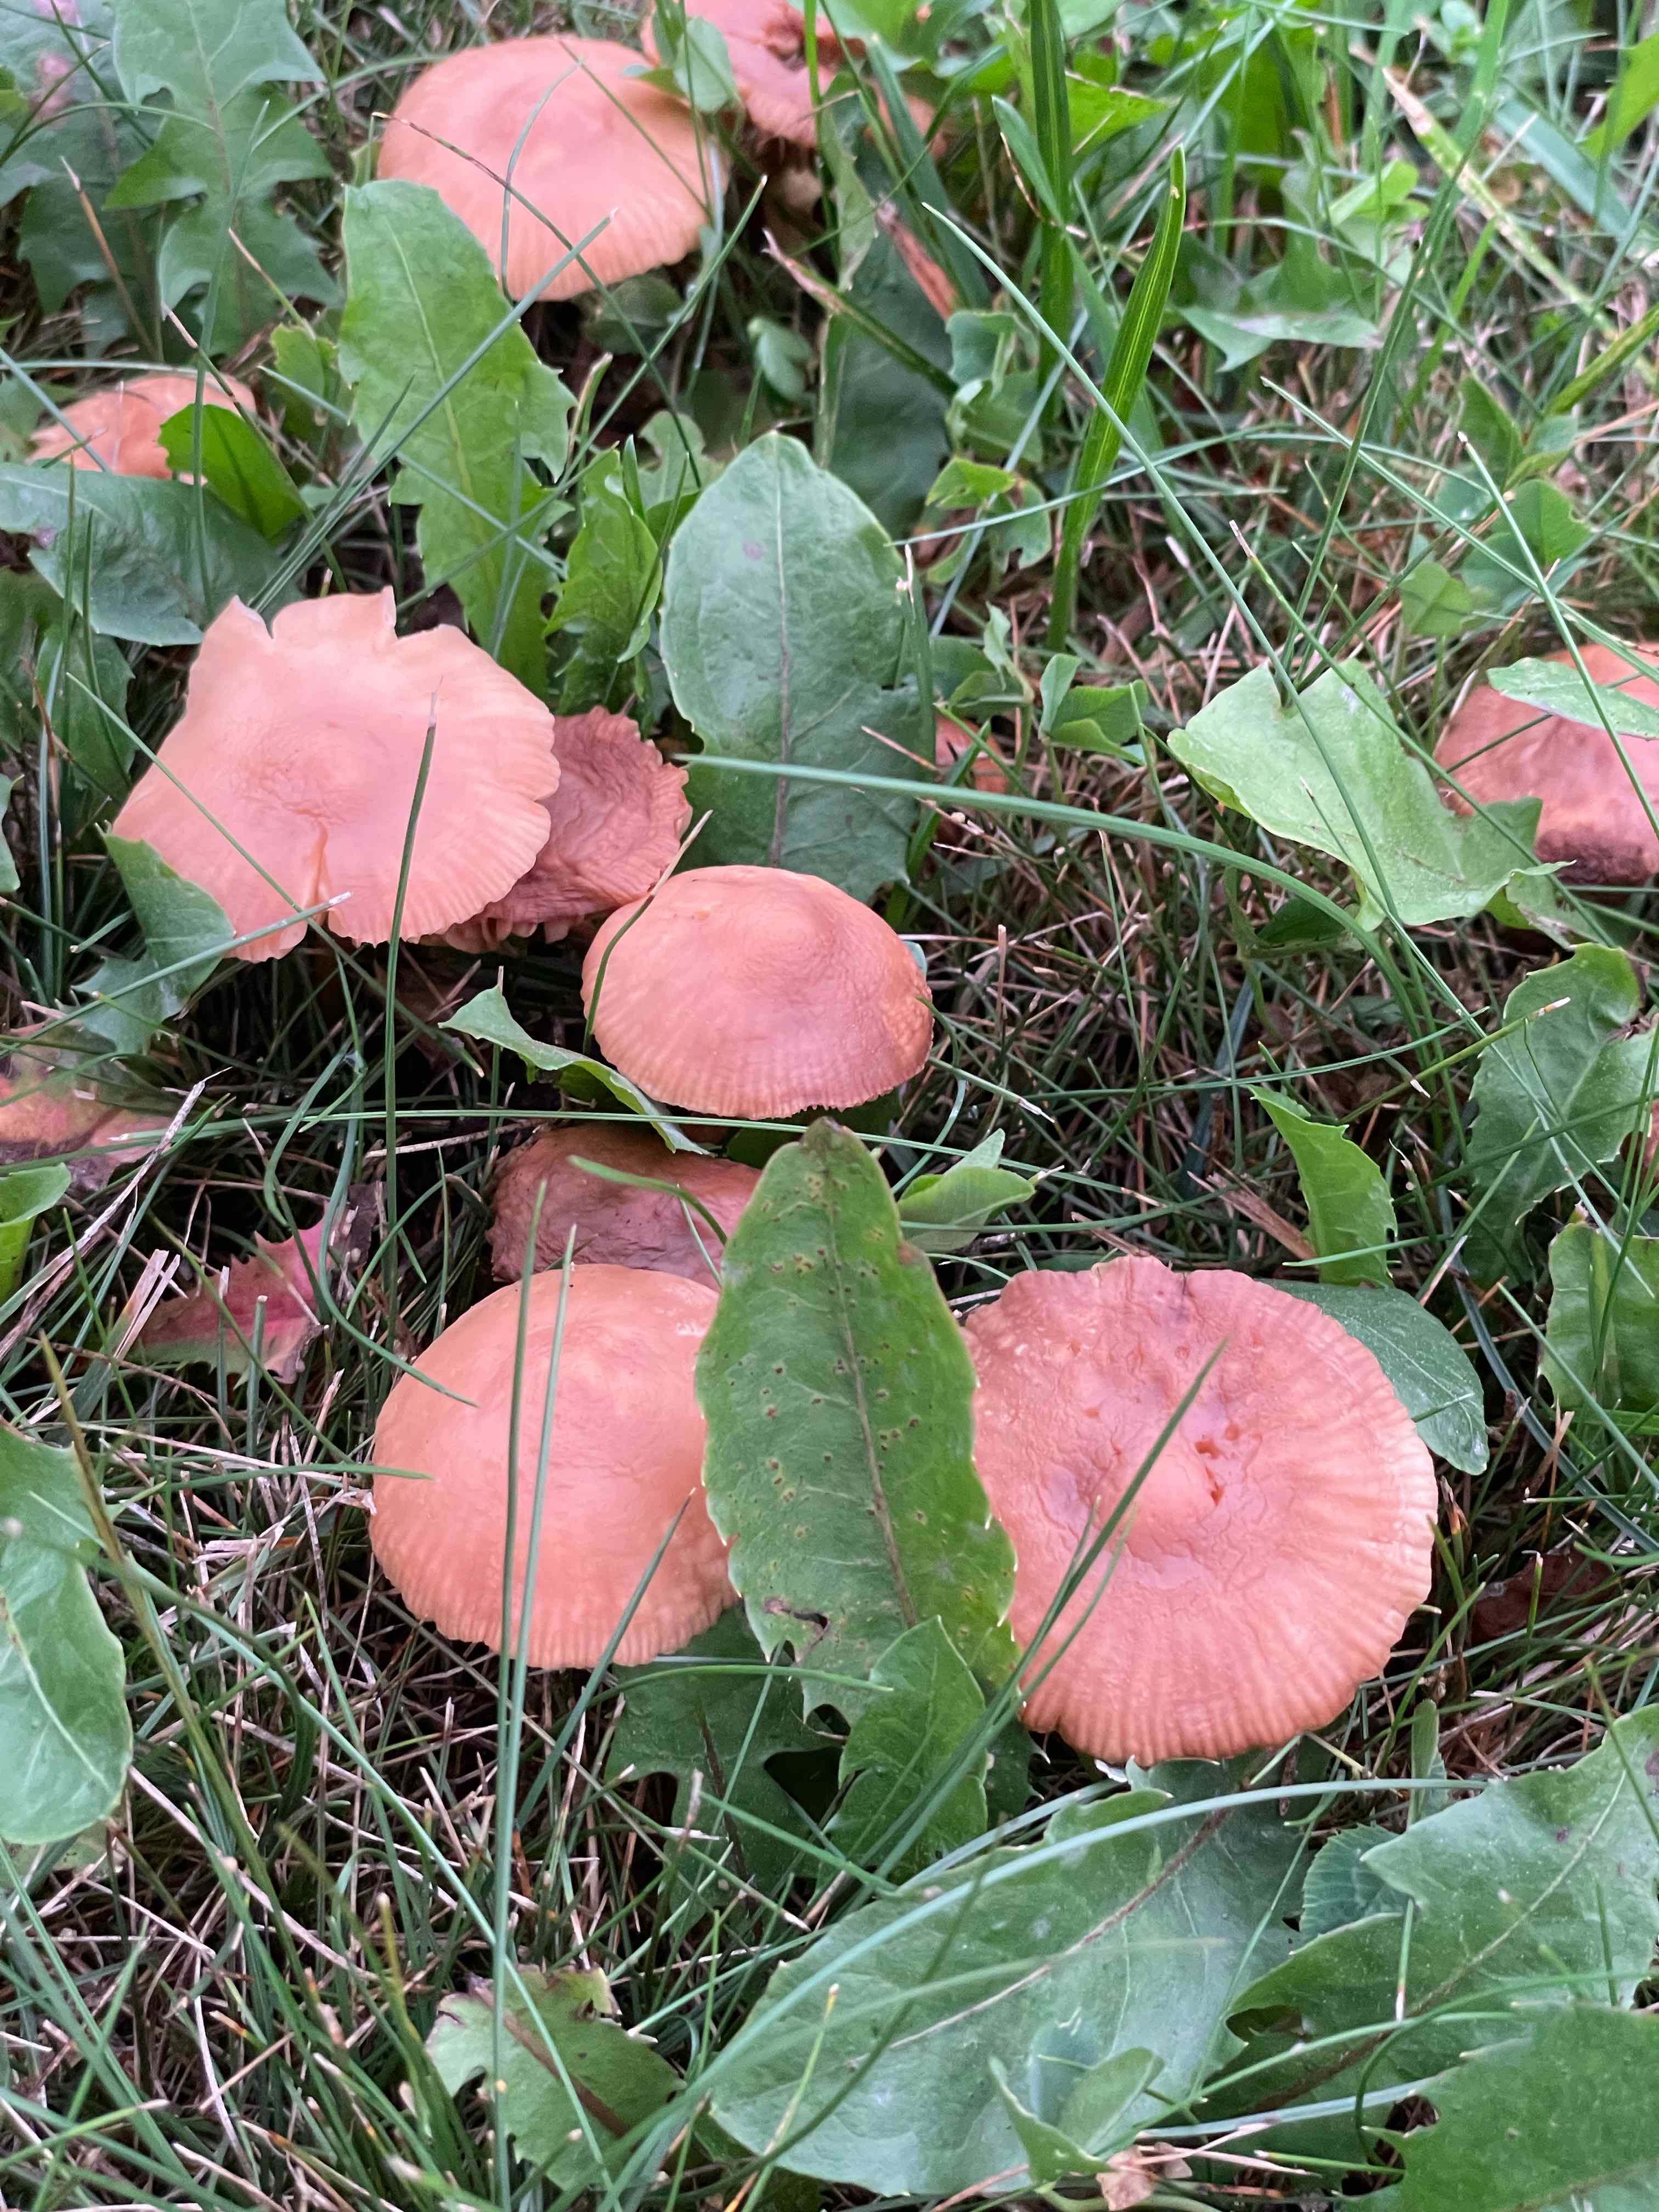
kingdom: Fungi
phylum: Basidiomycota
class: Agaricomycetes
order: Agaricales
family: Marasmiaceae
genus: Marasmius
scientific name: Marasmius oreades
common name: elledans-bruskhat
